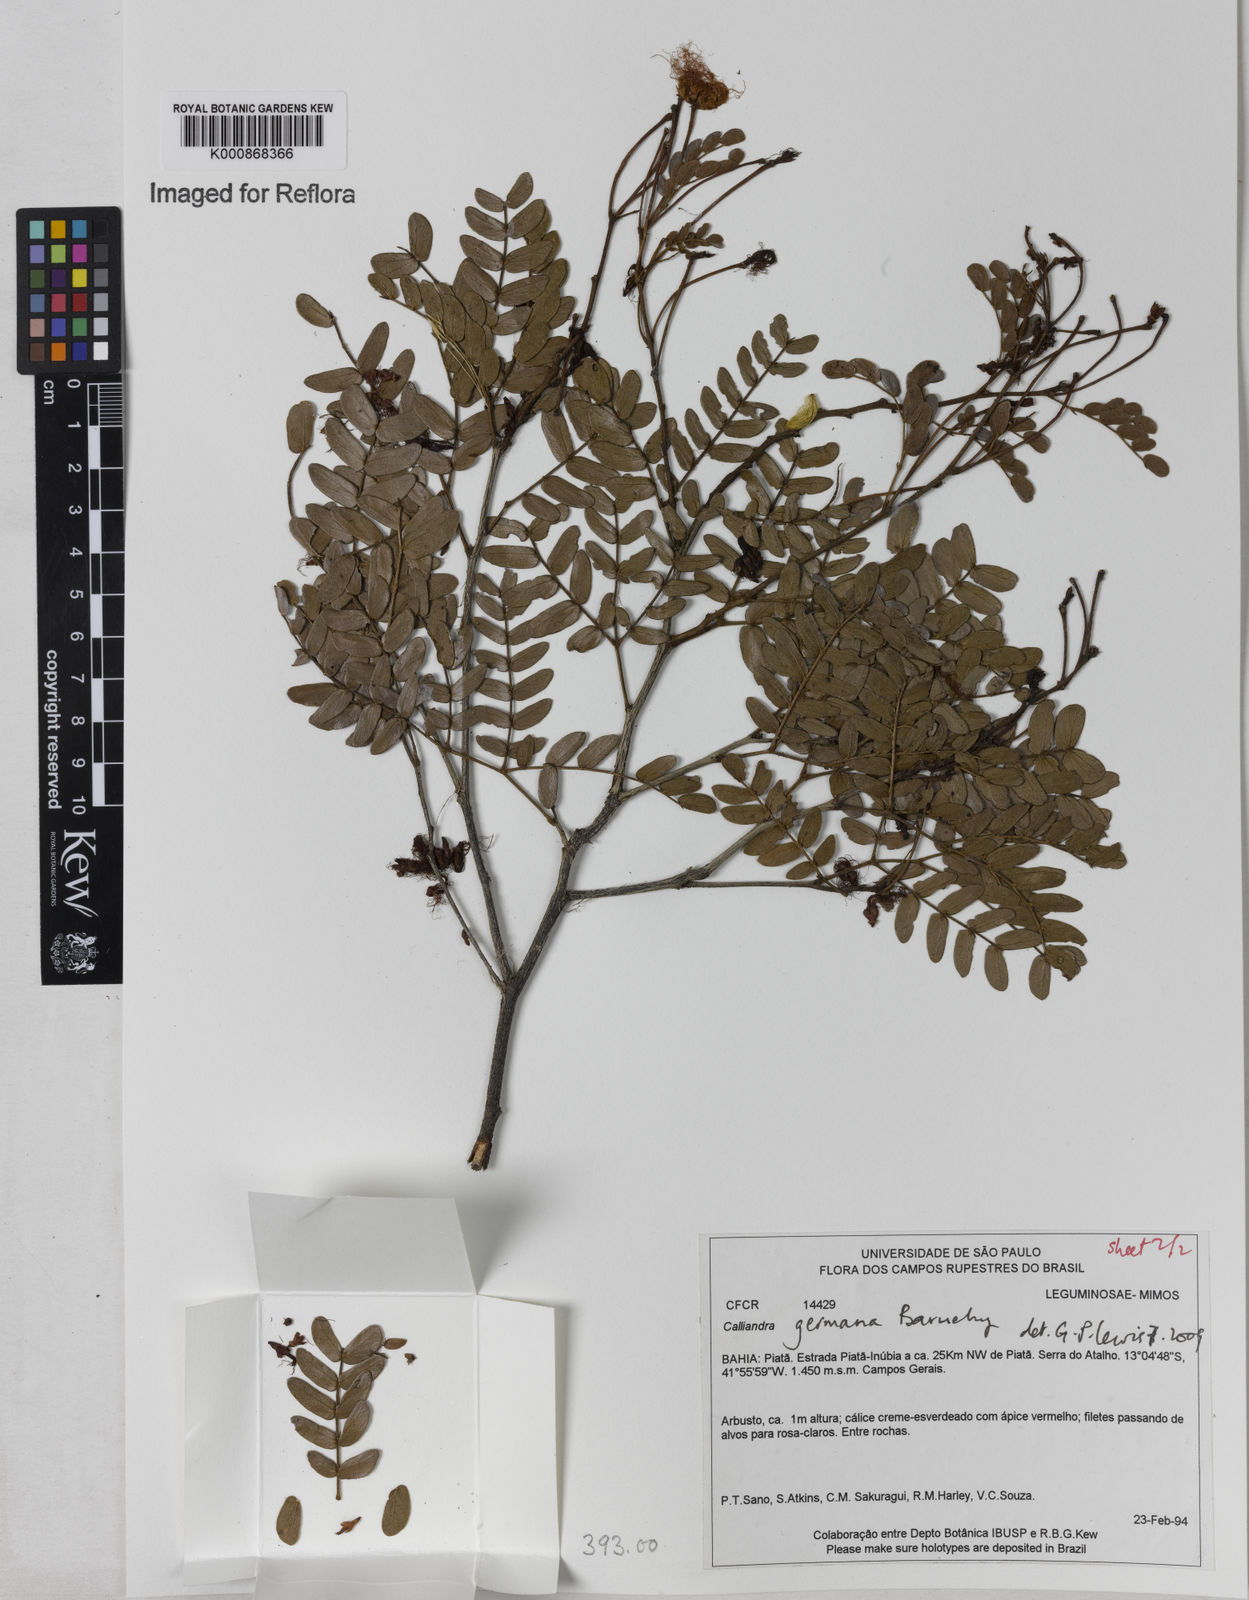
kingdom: Plantae
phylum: Tracheophyta
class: Magnoliopsida
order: Fabales
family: Fabaceae
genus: Calliandra
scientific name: Calliandra germana
